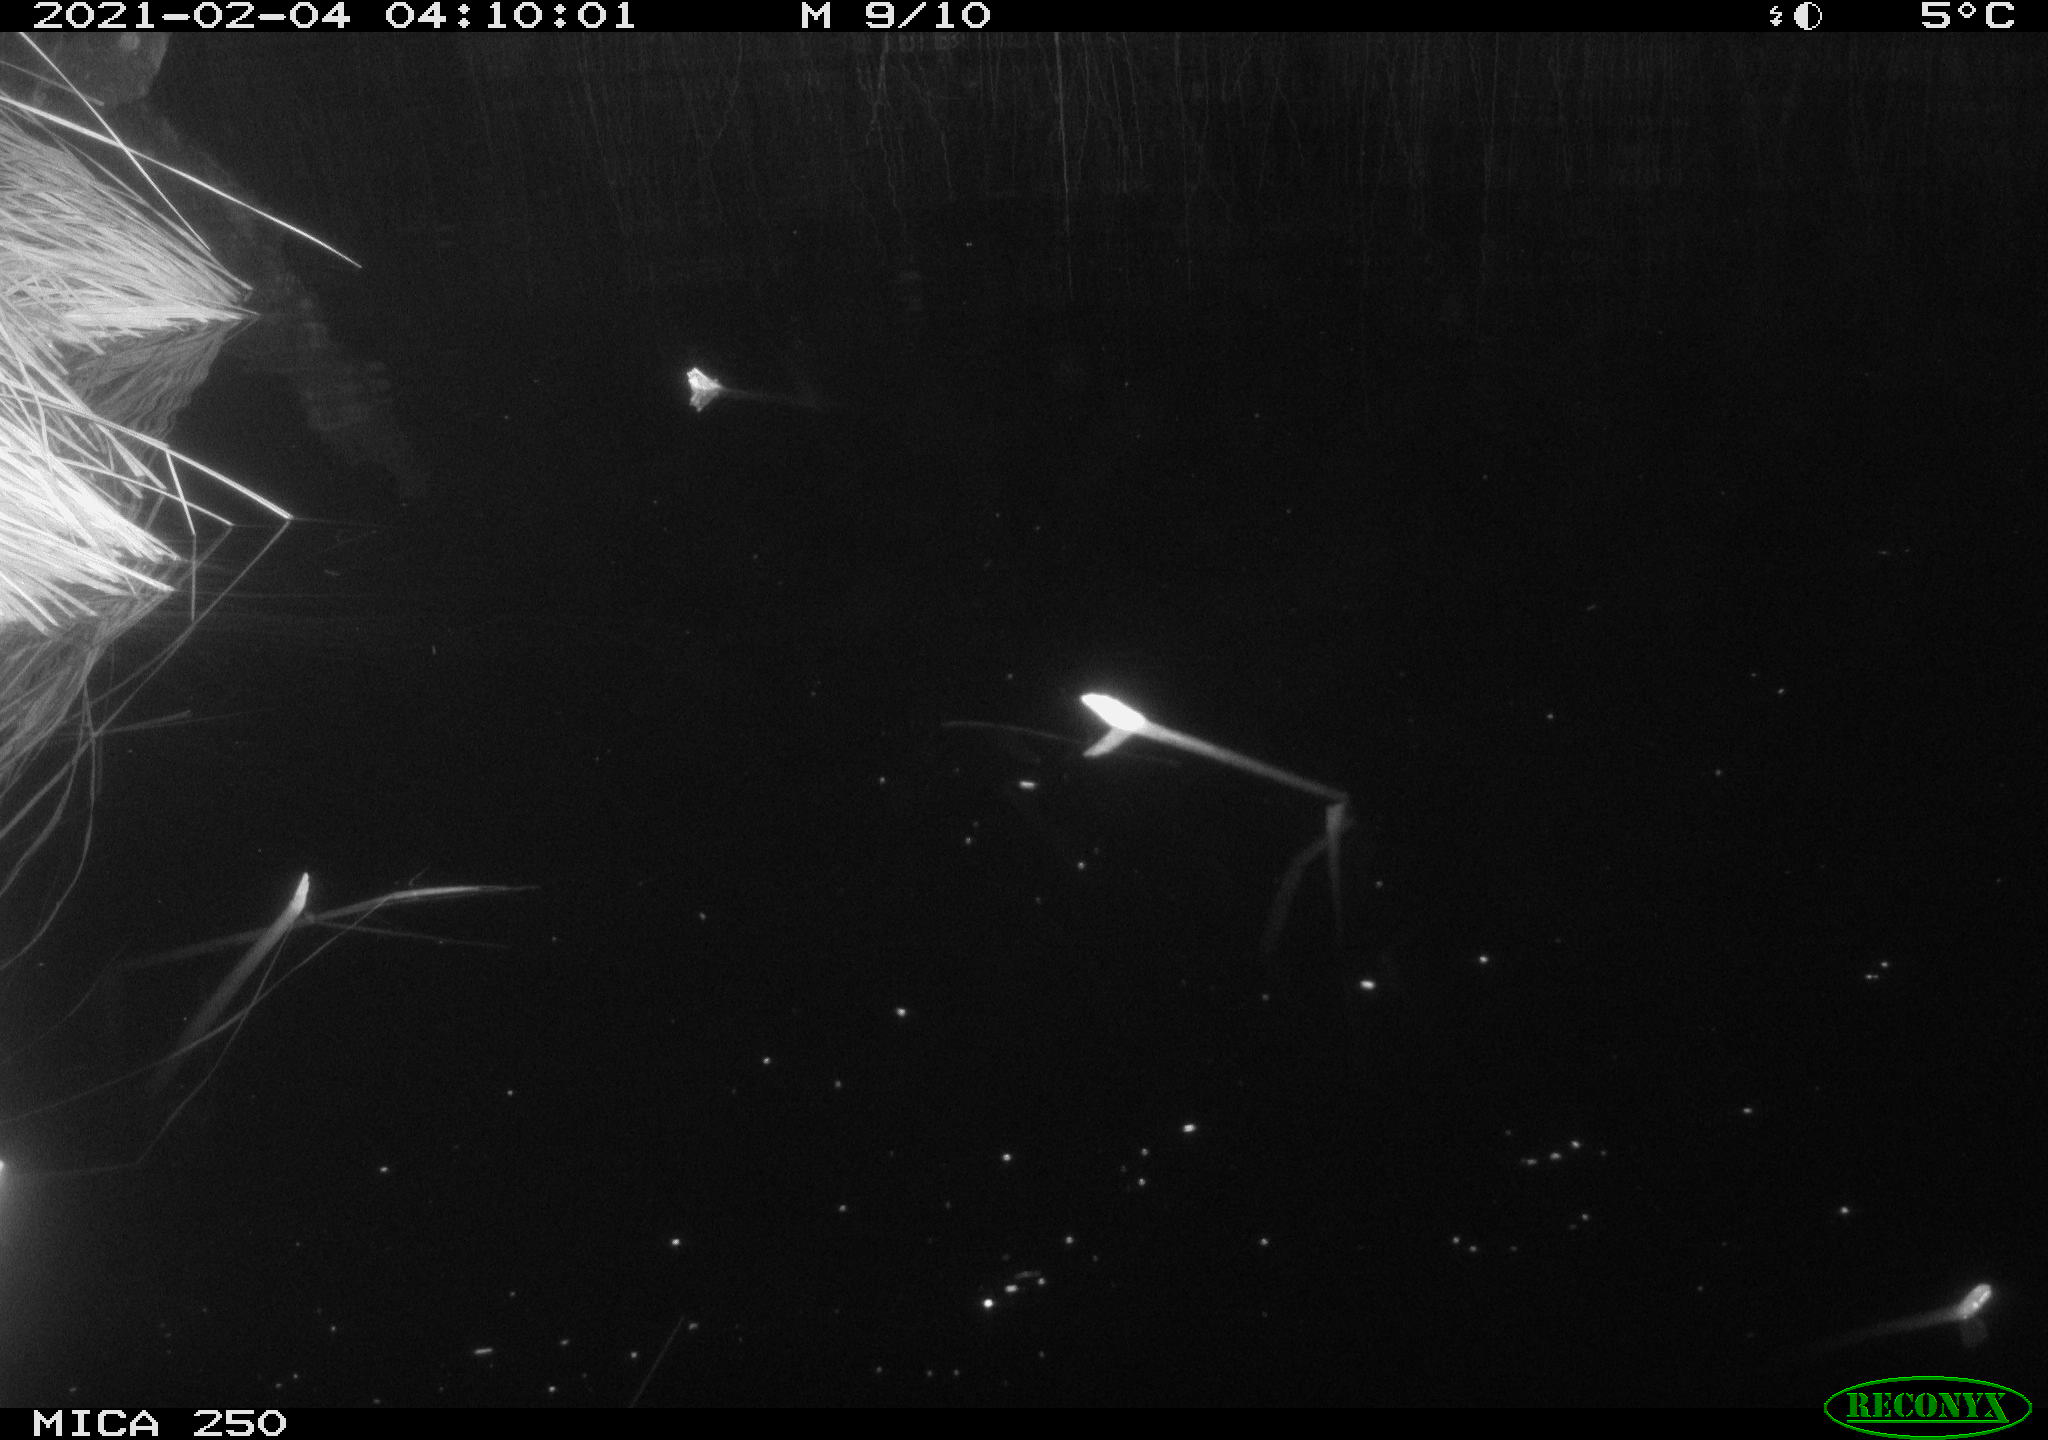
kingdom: Animalia
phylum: Chordata
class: Aves
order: Anseriformes
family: Anatidae
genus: Anas
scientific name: Anas platyrhynchos
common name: Mallard
